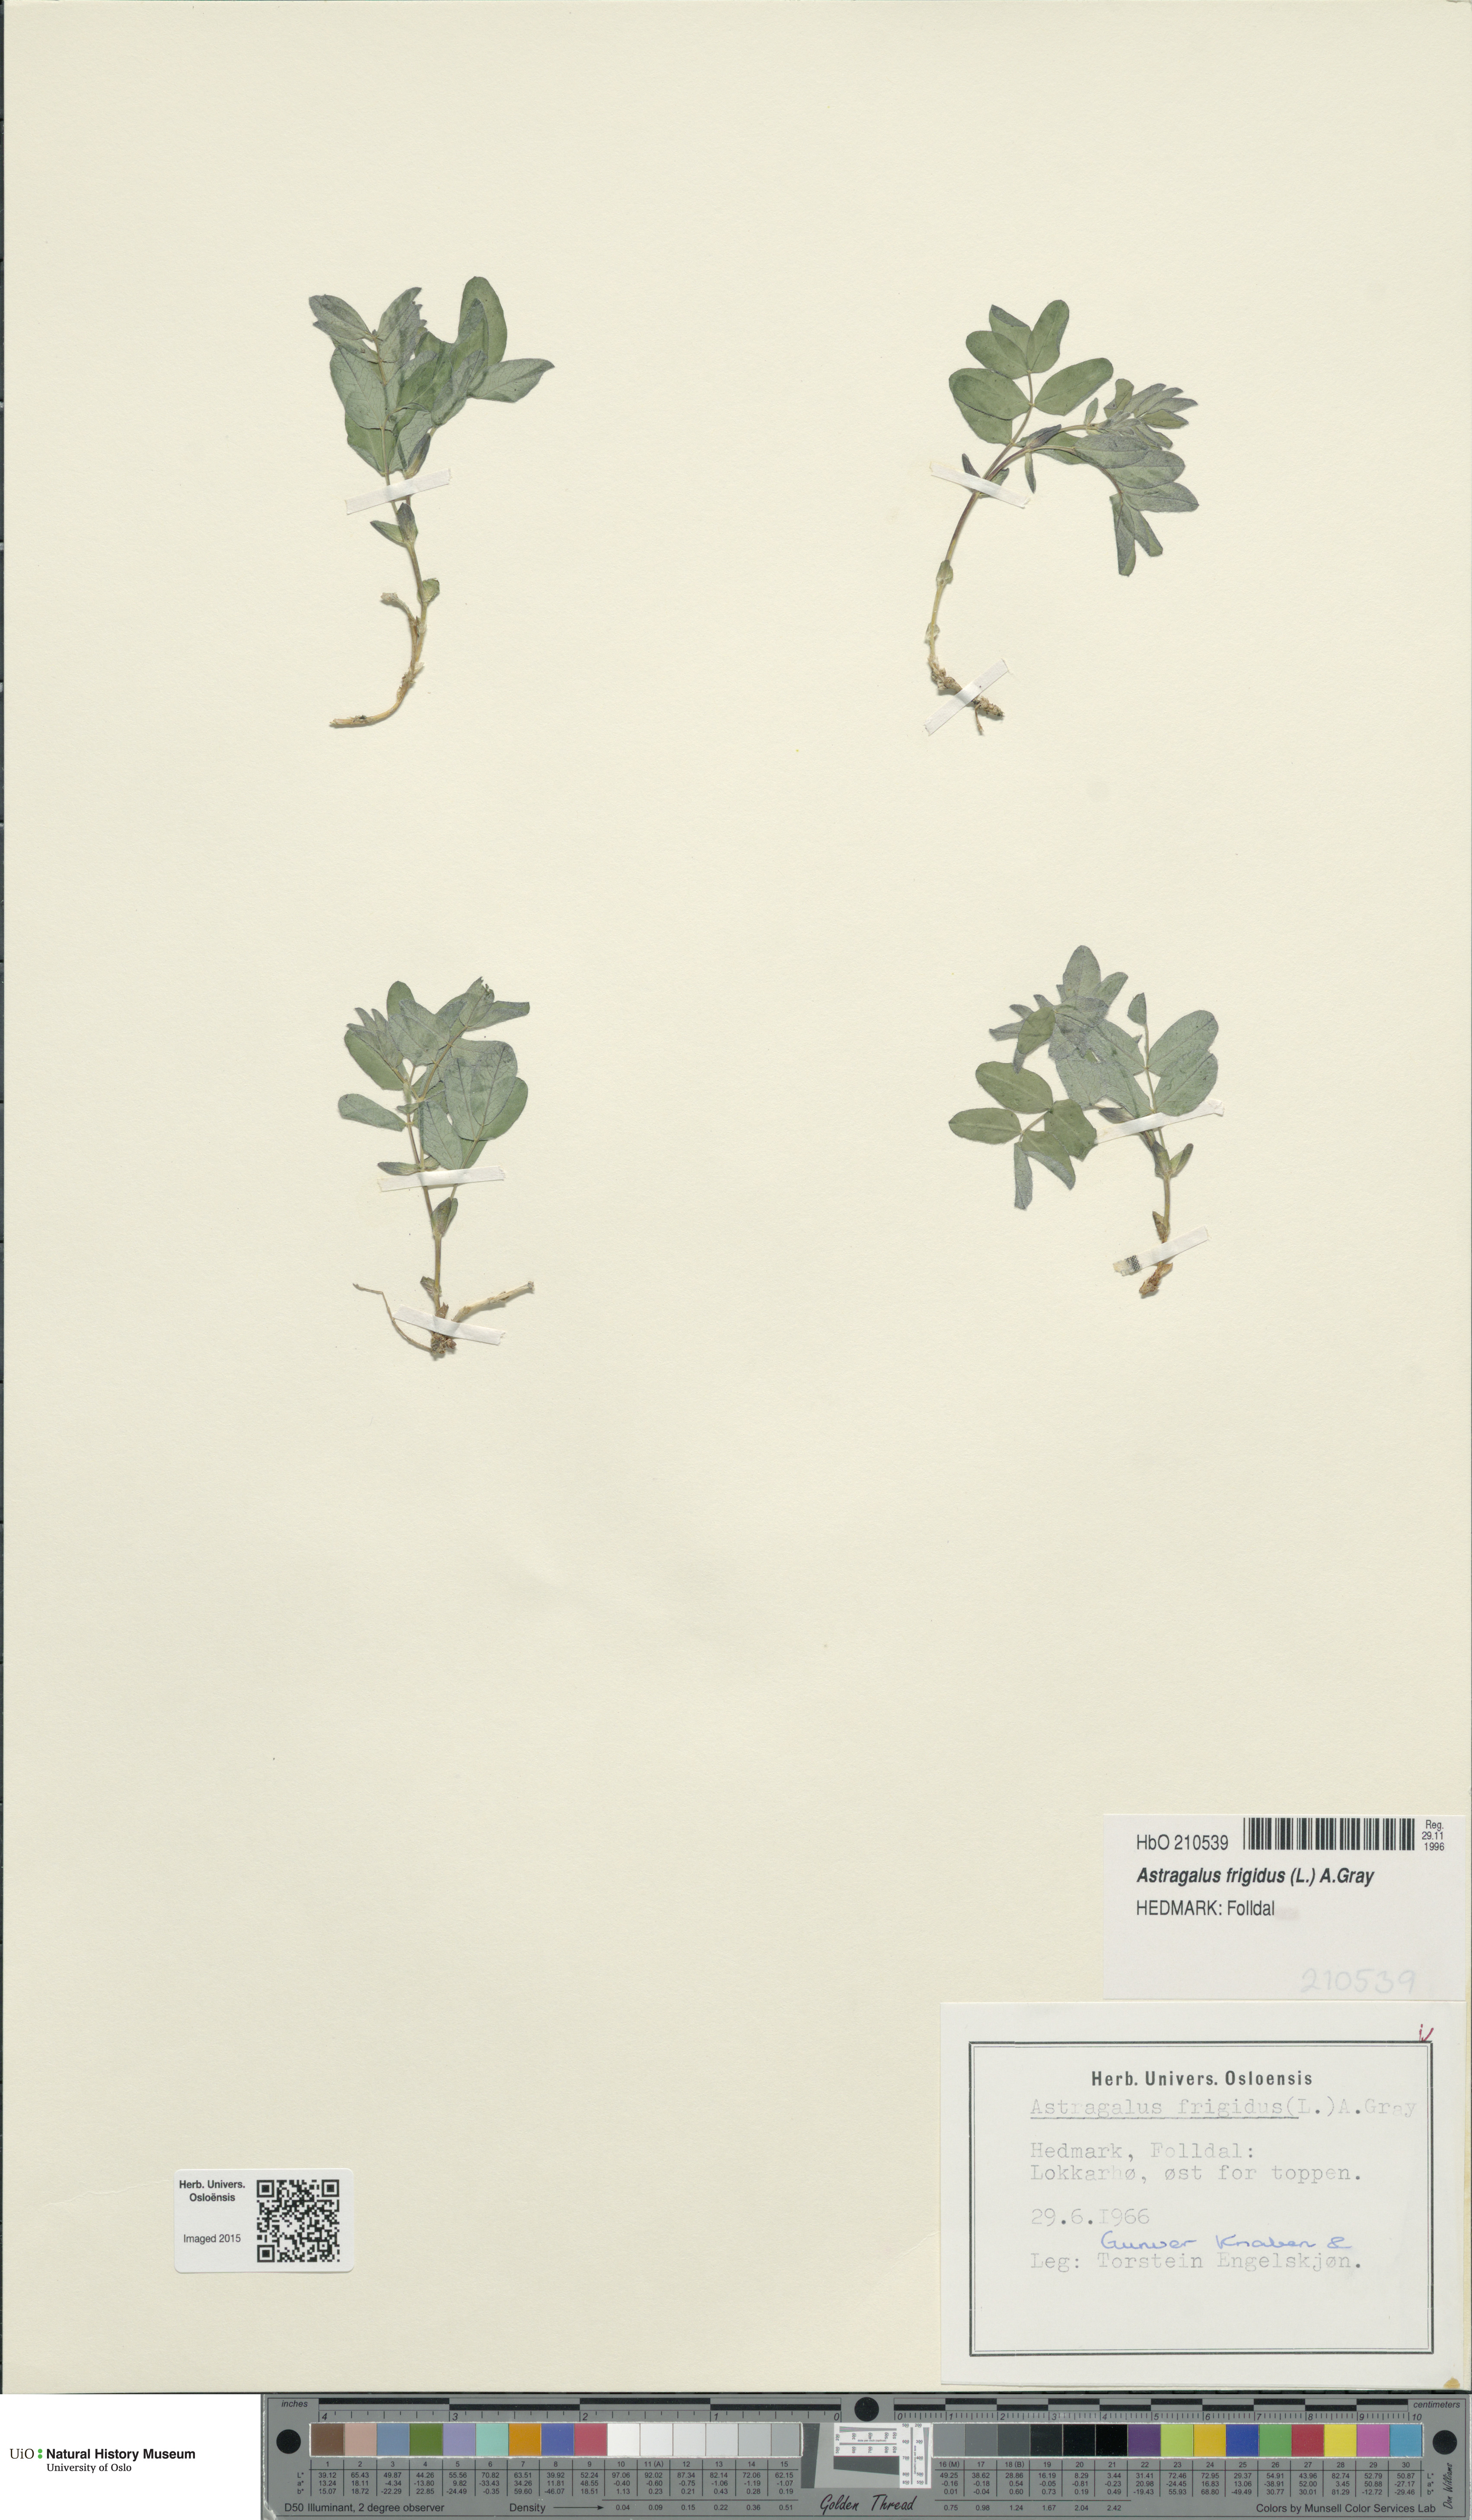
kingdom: Plantae
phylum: Tracheophyta
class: Magnoliopsida
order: Fabales
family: Fabaceae
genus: Astragalus
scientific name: Astragalus frigidus
